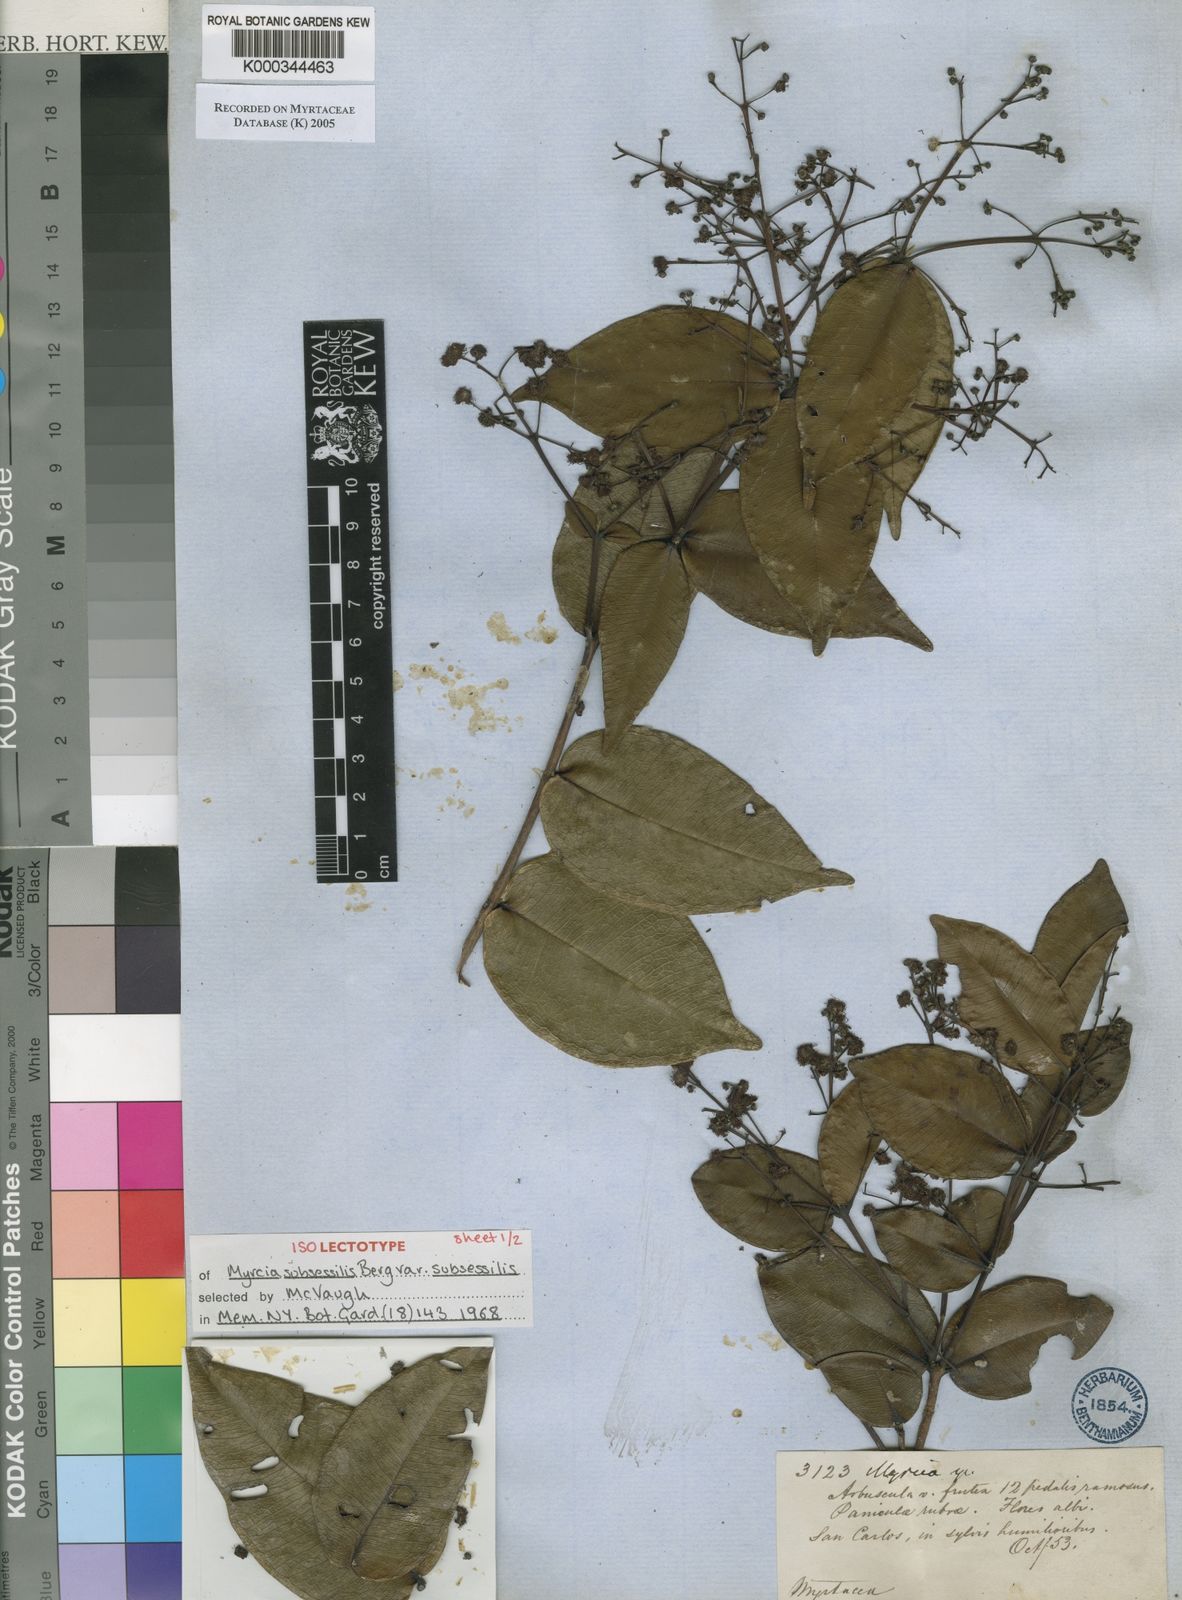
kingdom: Plantae
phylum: Tracheophyta
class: Magnoliopsida
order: Myrtales
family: Myrtaceae
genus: Myrcia
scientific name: Myrcia subsessilis
